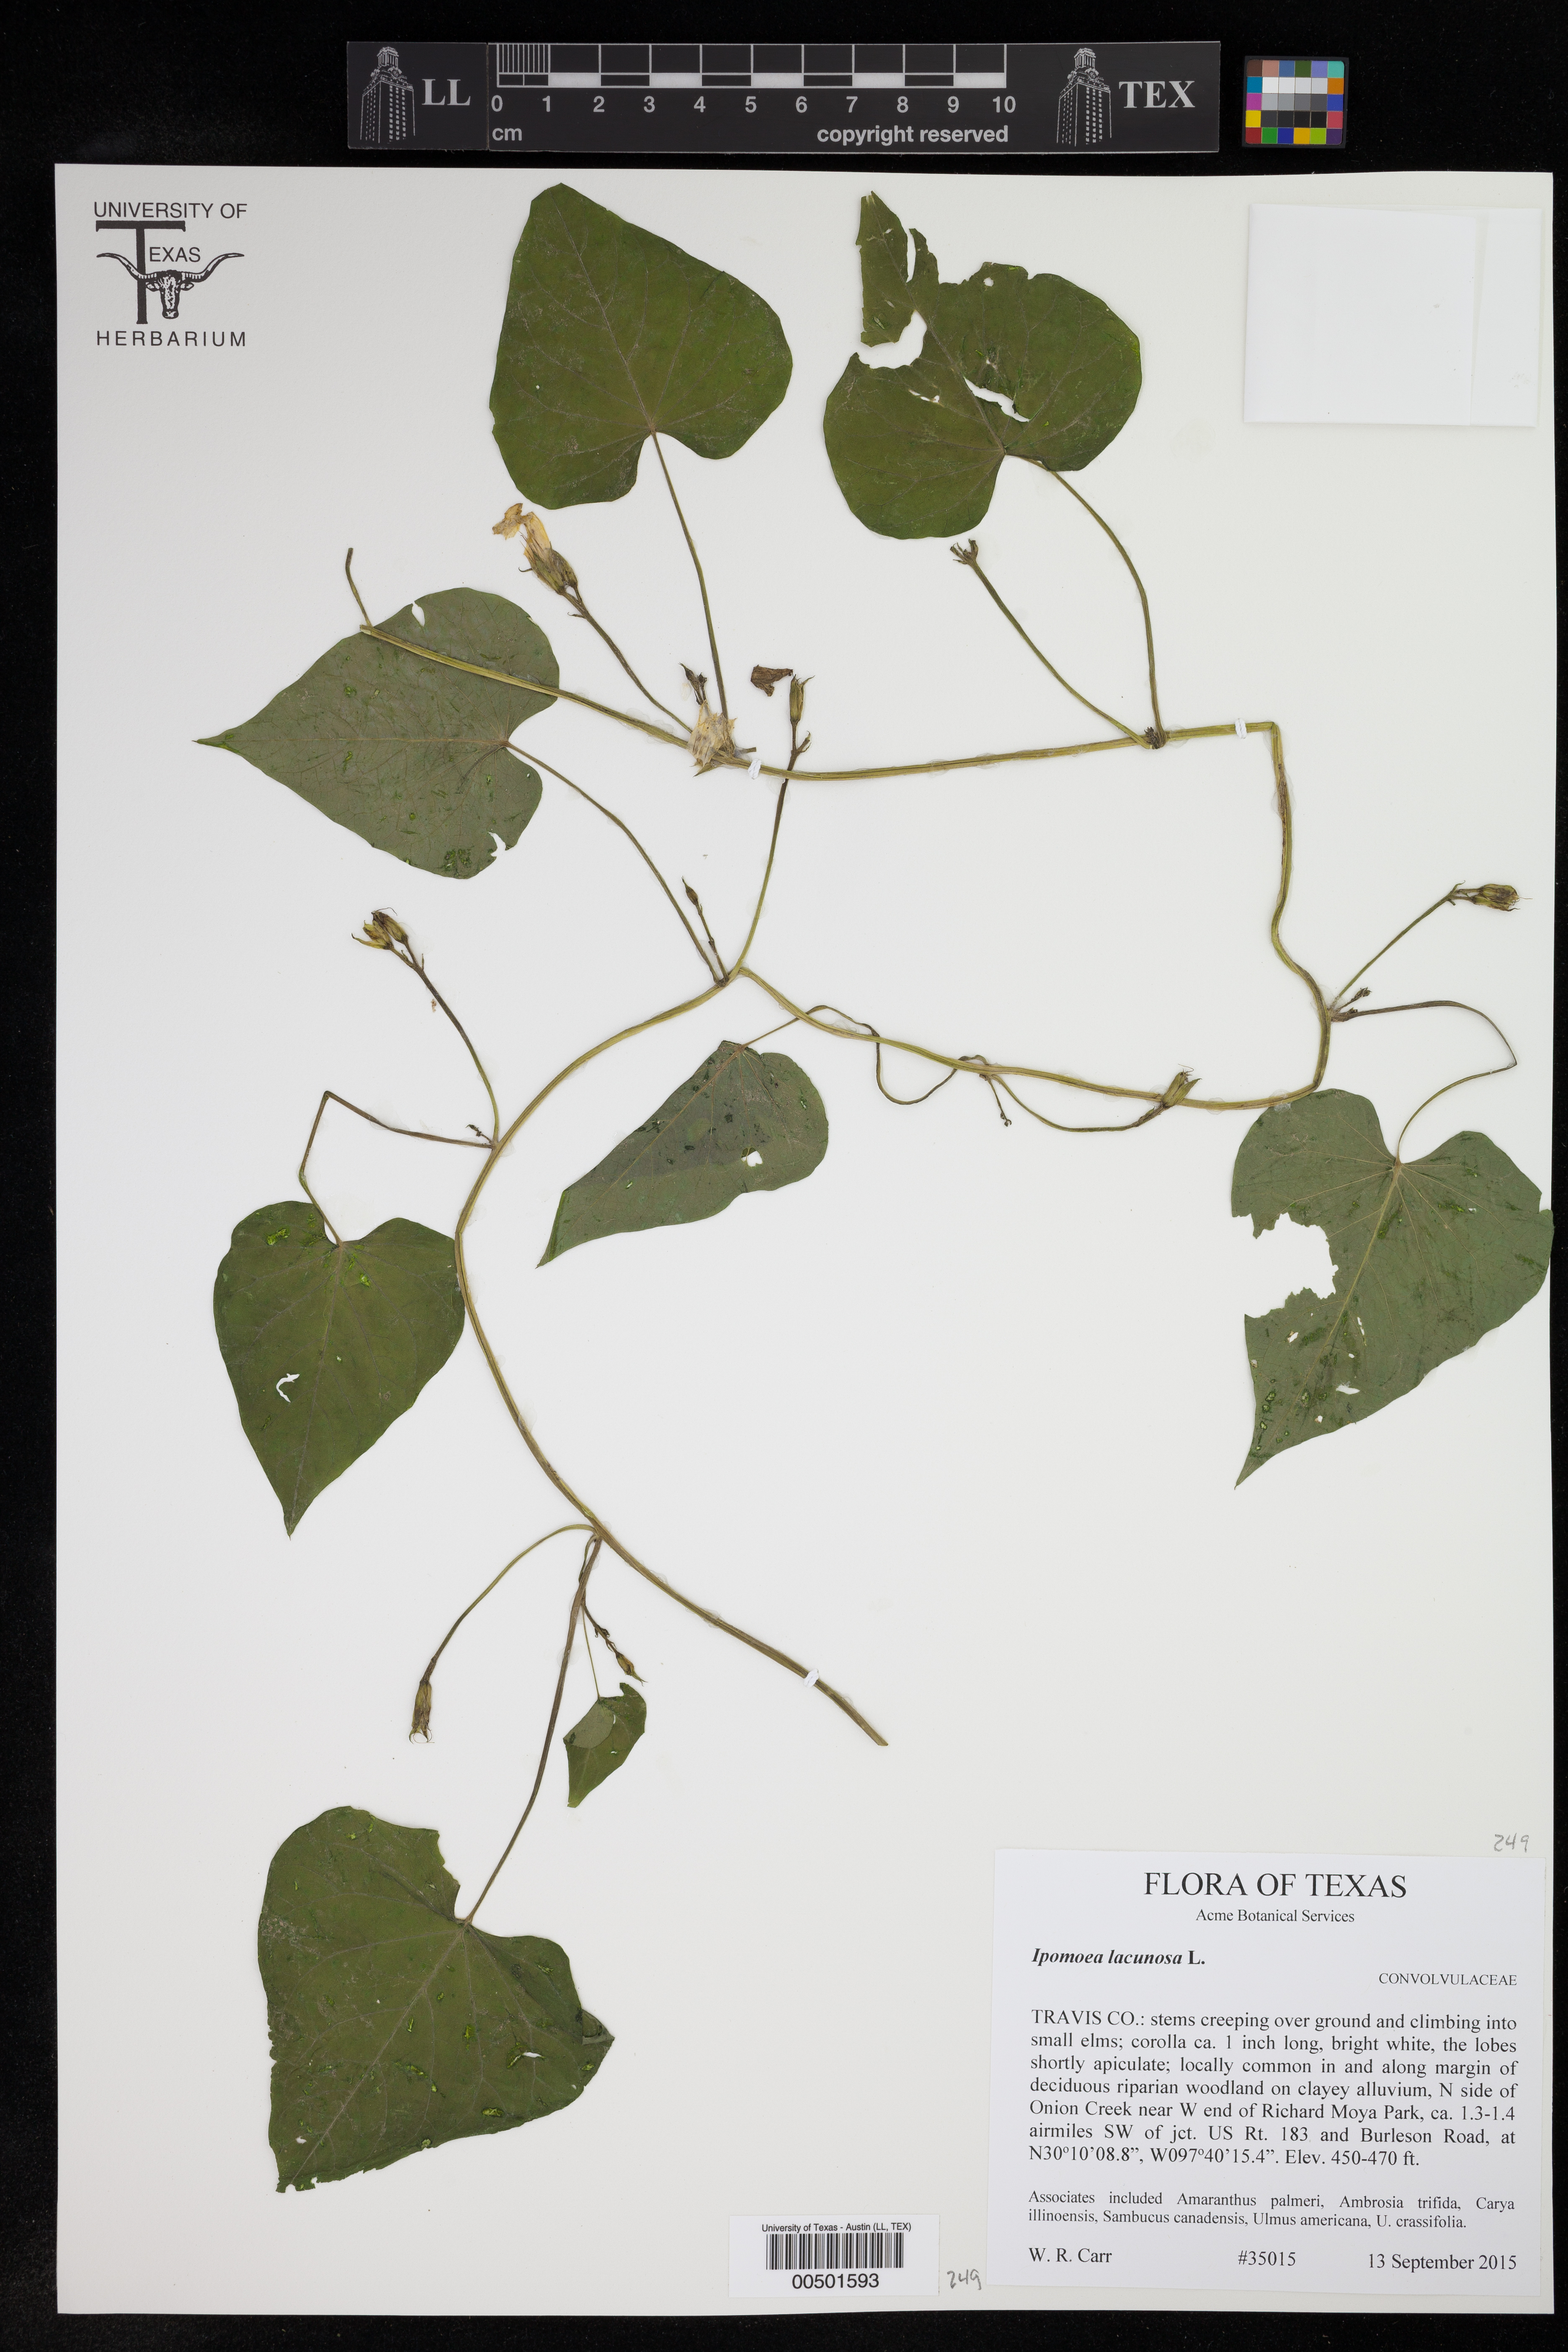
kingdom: Plantae
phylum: Tracheophyta
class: Magnoliopsida
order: Solanales
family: Convolvulaceae
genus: Ipomoea
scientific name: Ipomoea lacunosa
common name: White morning-glory
